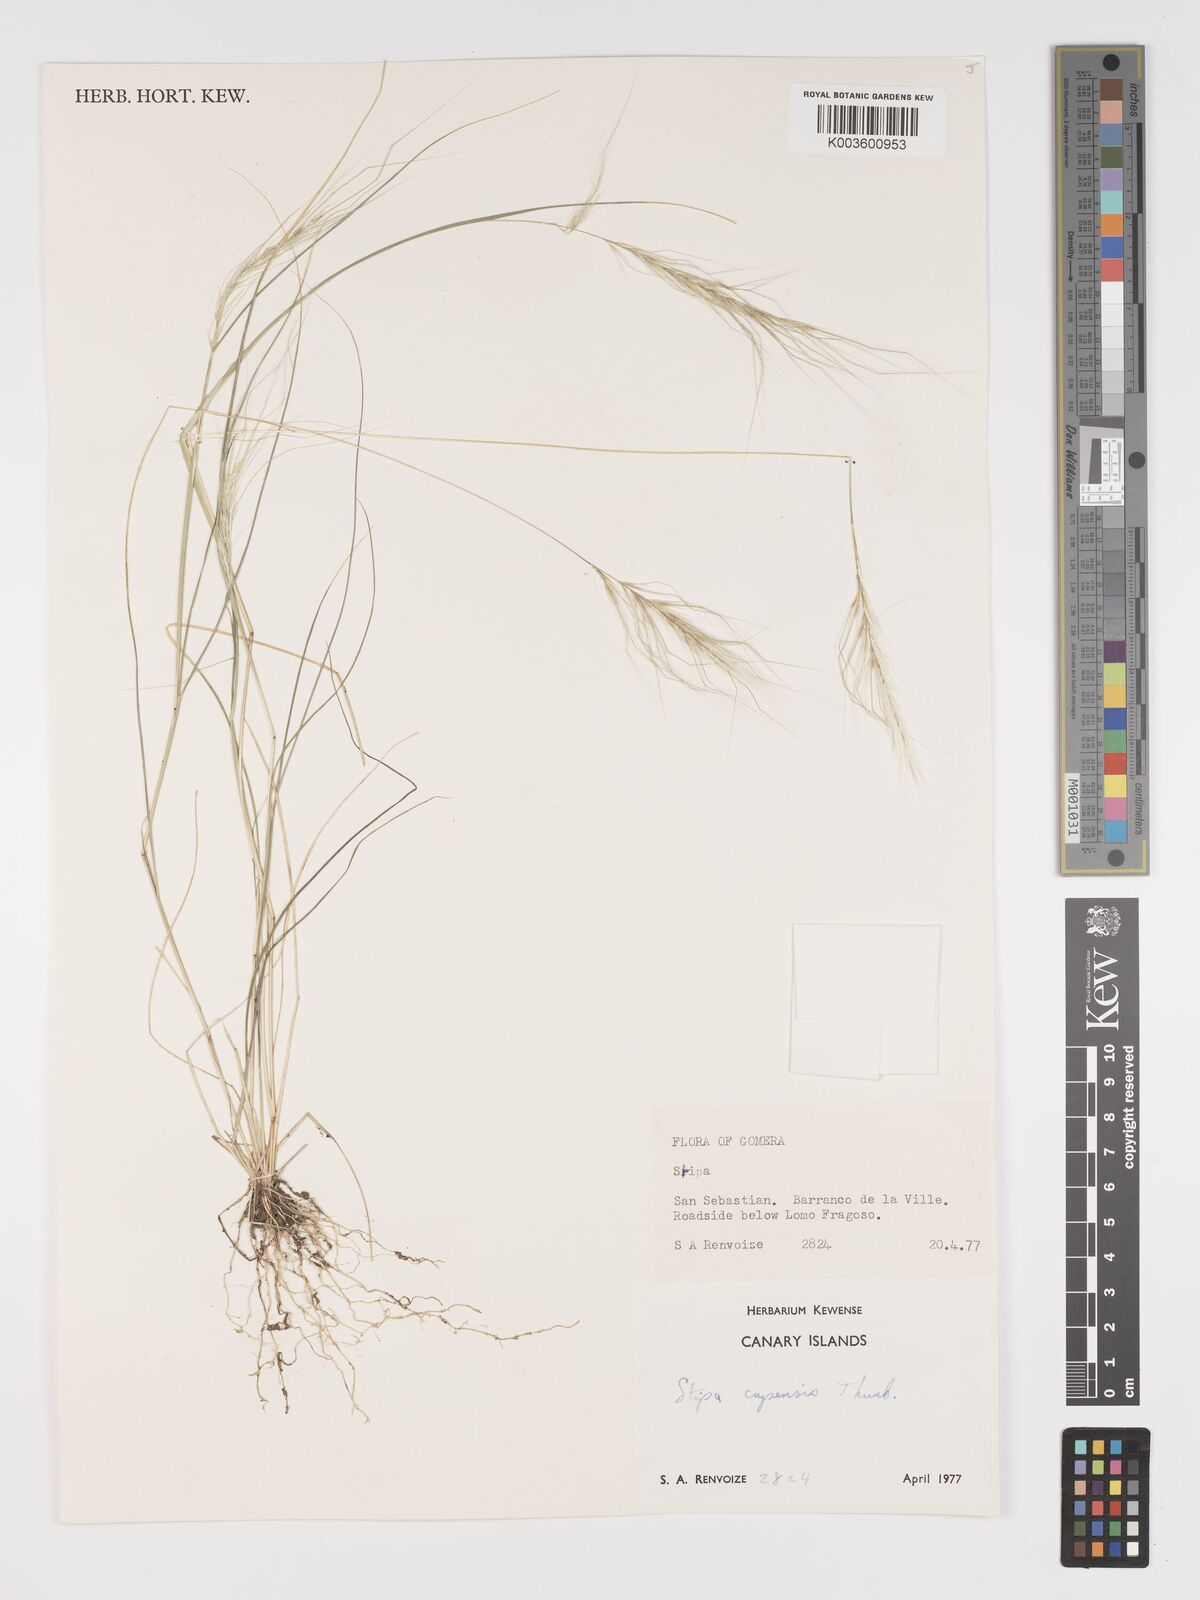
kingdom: Plantae
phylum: Tracheophyta
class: Liliopsida
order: Poales
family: Poaceae
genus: Stipellula
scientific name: Stipellula capensis
